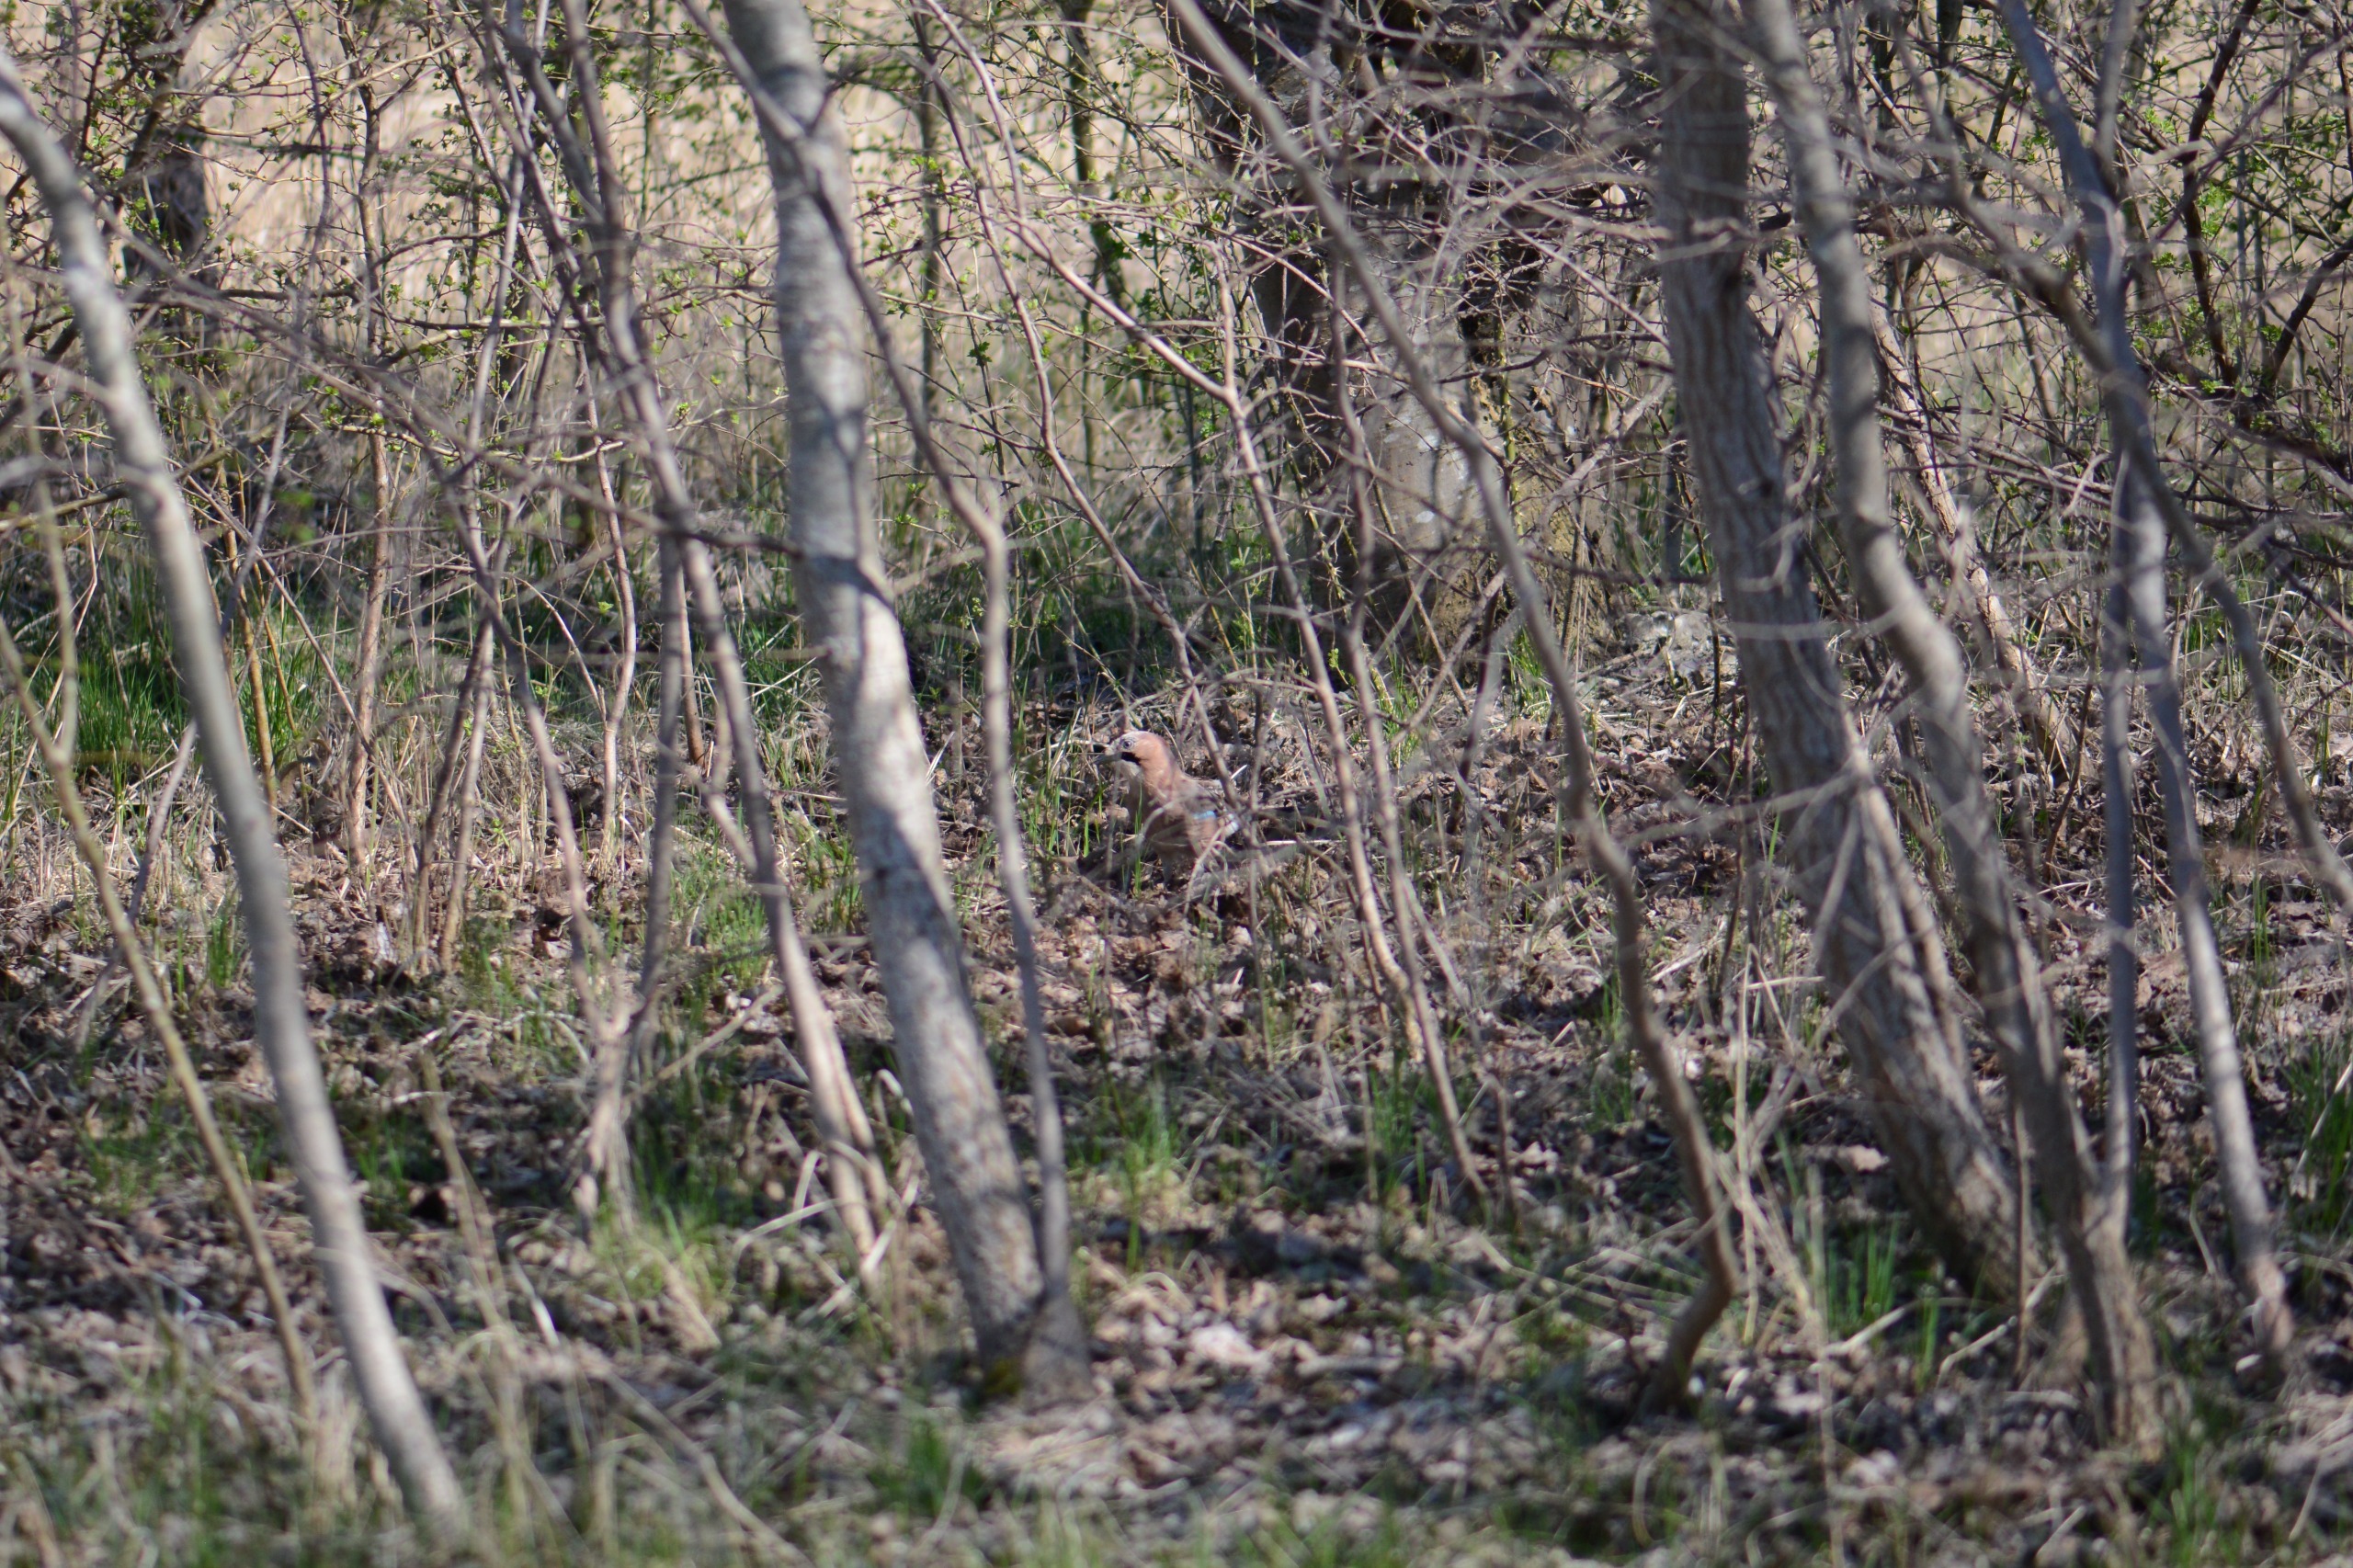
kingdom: Animalia
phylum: Chordata
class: Aves
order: Passeriformes
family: Corvidae
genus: Garrulus
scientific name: Garrulus glandarius
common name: Skovskade
